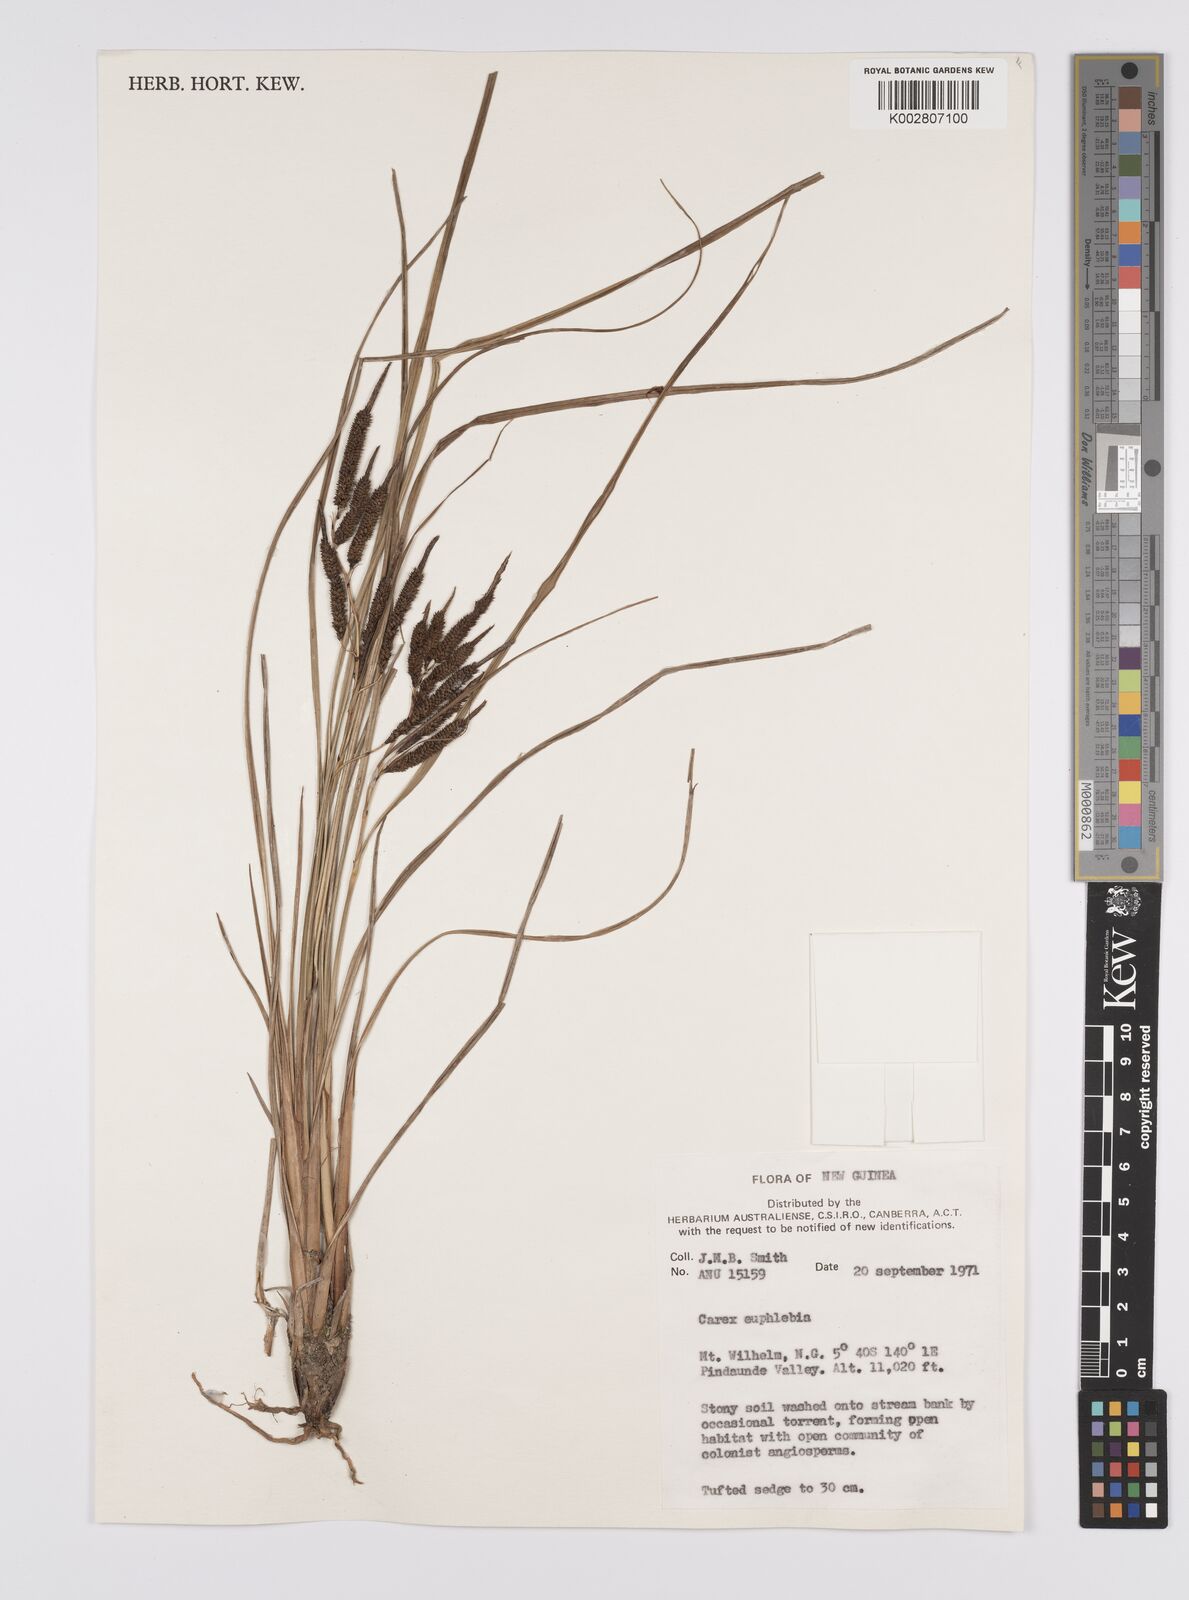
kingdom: Plantae
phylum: Tracheophyta
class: Liliopsida
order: Poales
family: Cyperaceae
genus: Carex
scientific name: Carex graeffeana
